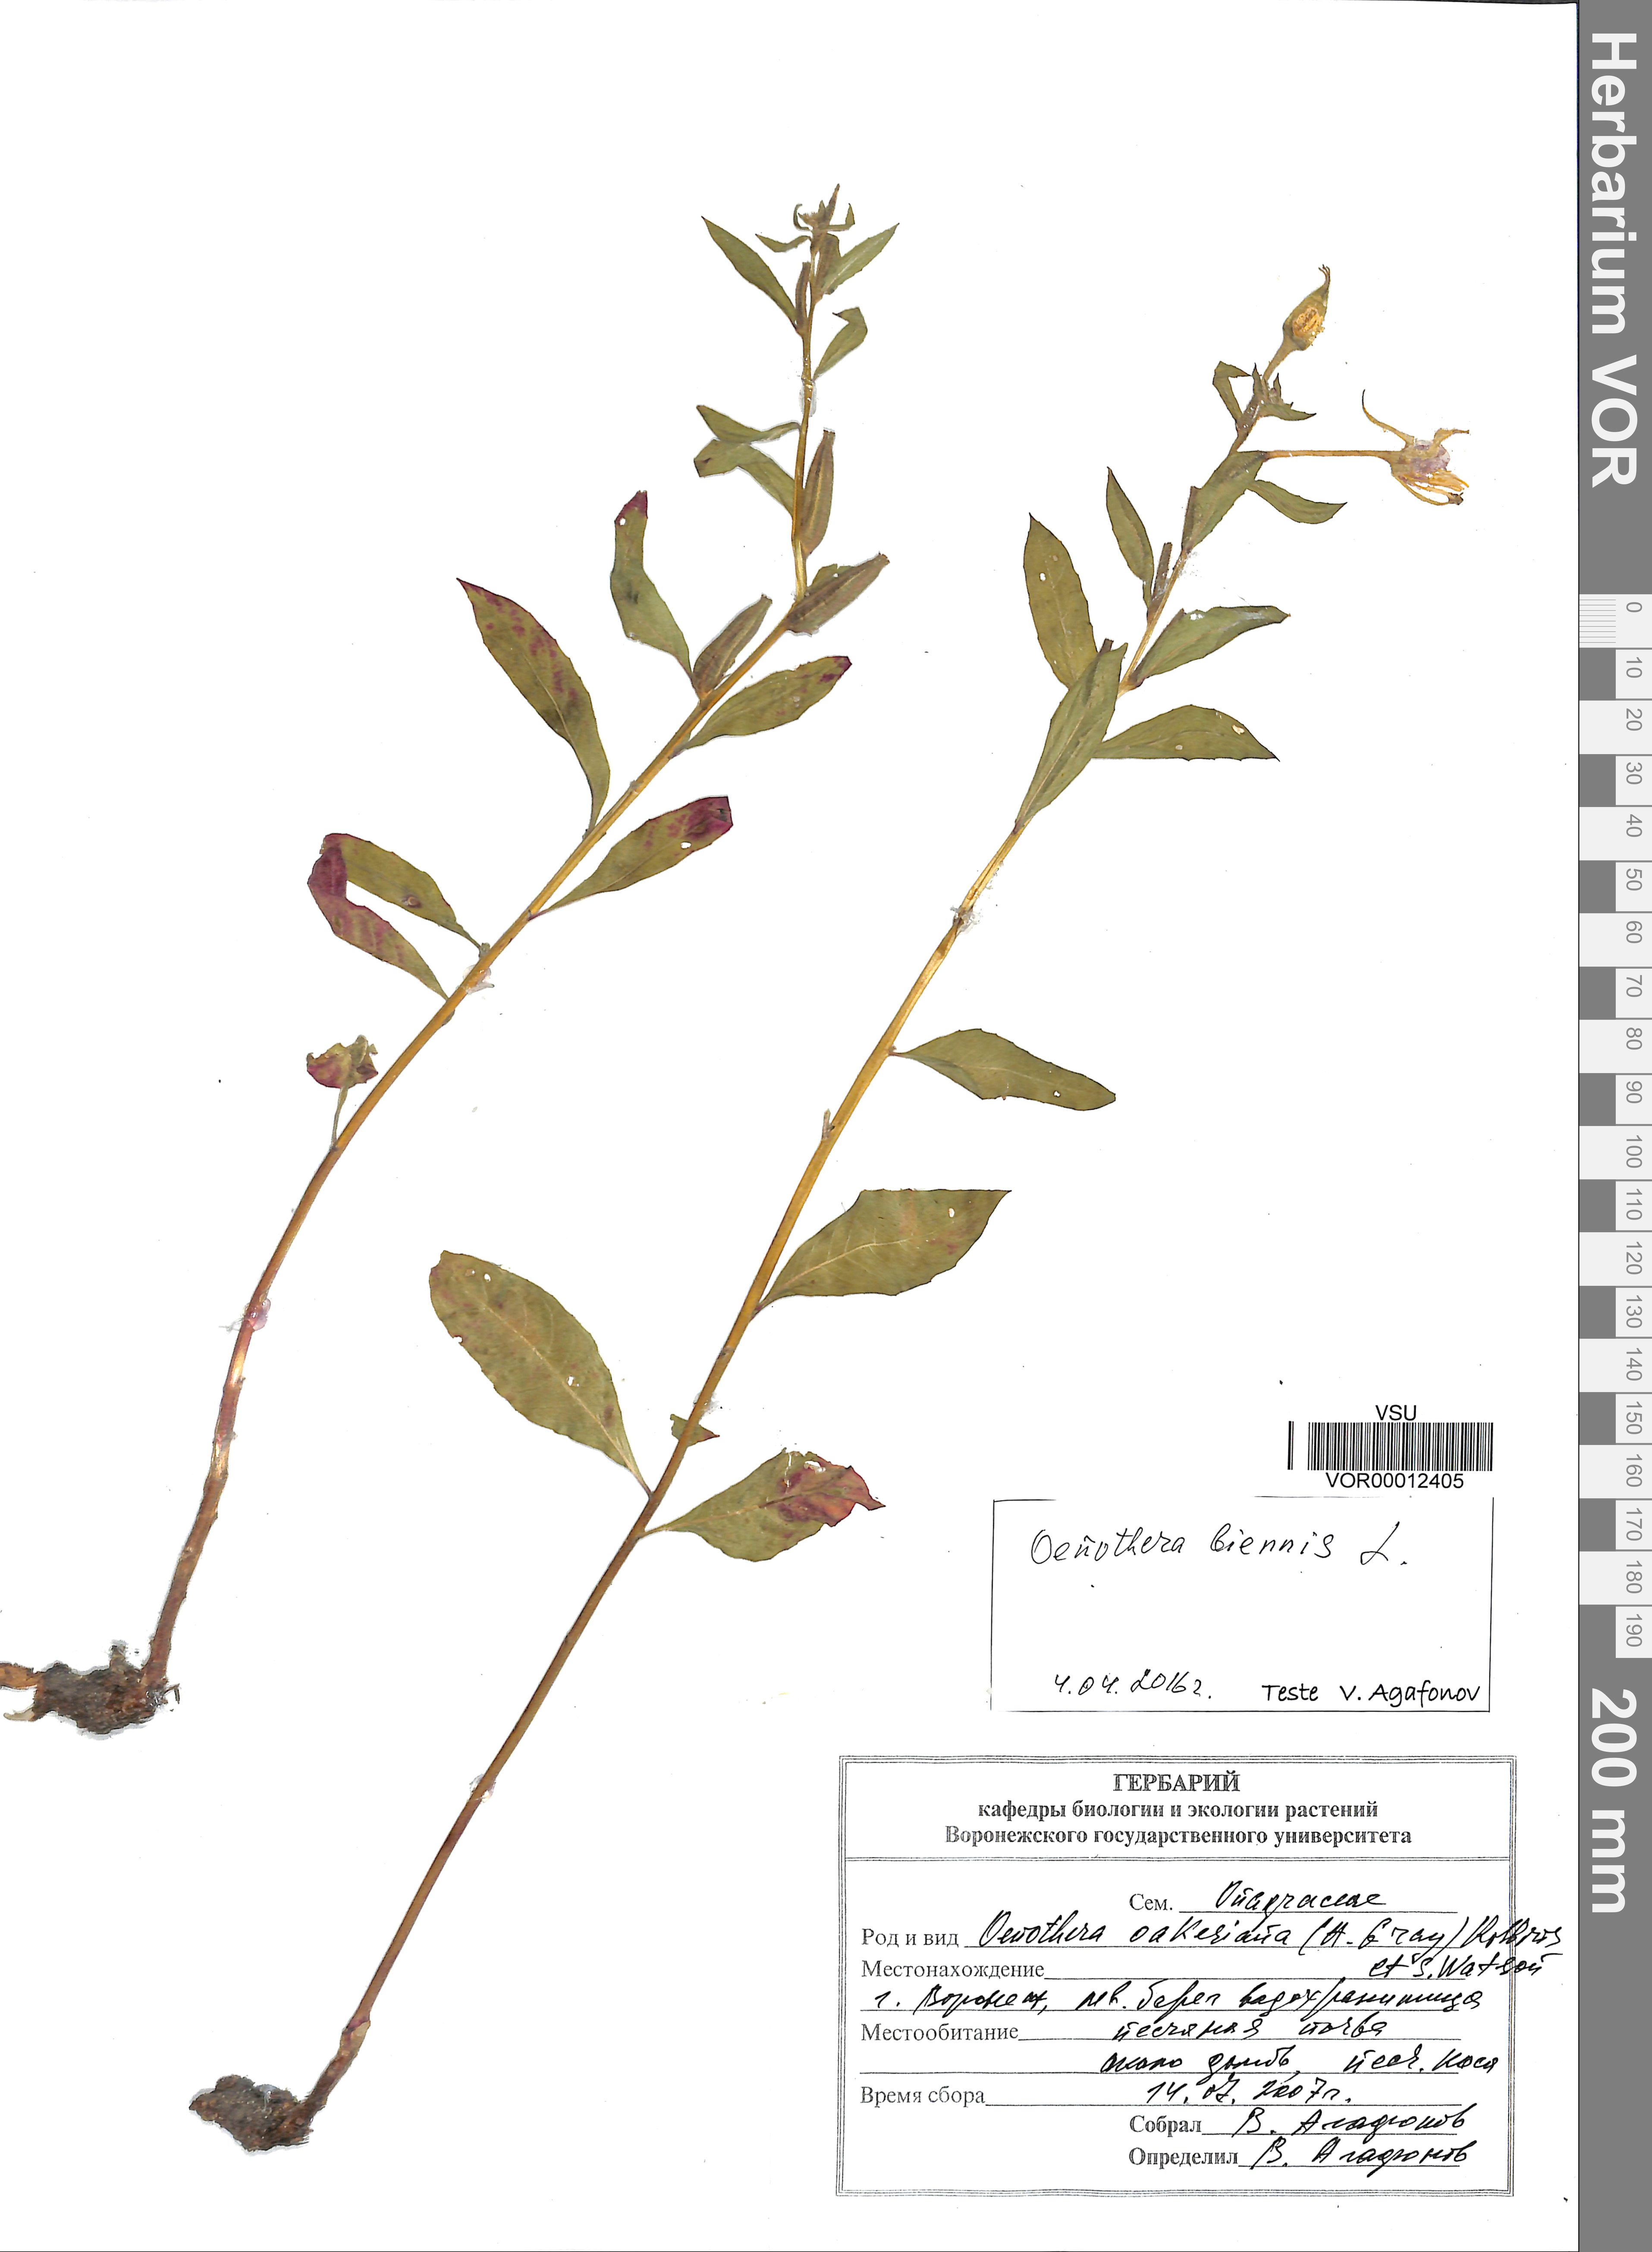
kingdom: Plantae
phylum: Tracheophyta
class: Magnoliopsida
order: Myrtales
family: Onagraceae
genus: Oenothera
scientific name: Oenothera biennis
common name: Common evening-primrose
